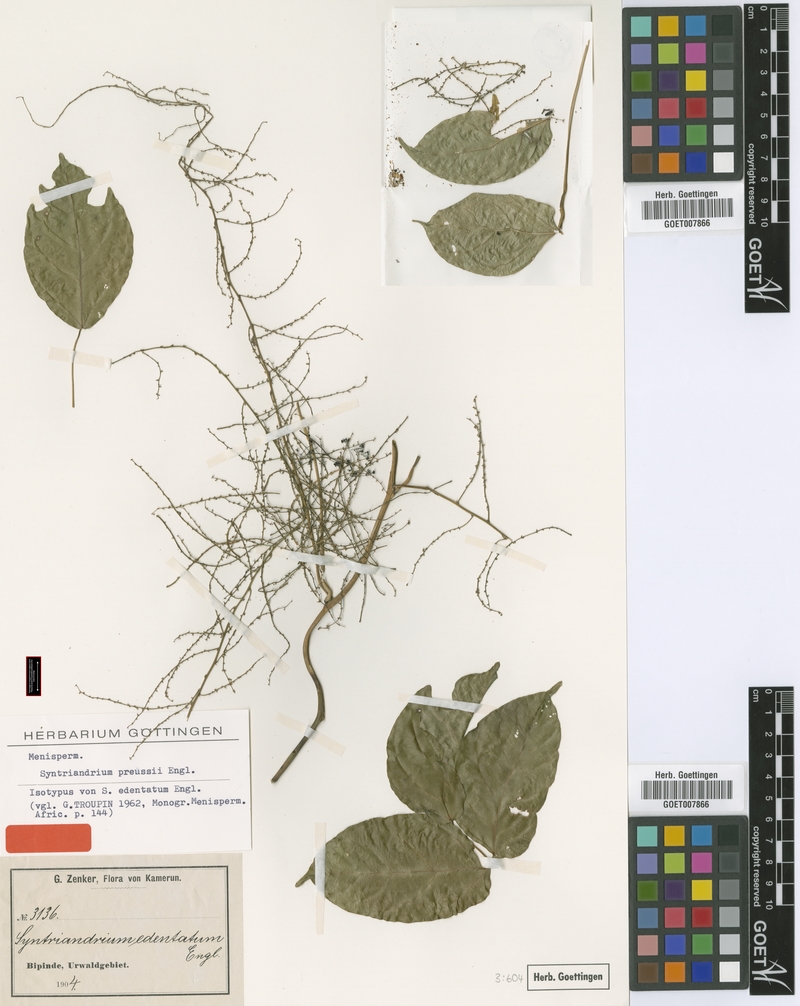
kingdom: Plantae
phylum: Tracheophyta
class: Magnoliopsida
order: Ranunculales
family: Menispermaceae
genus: Syntriandrium
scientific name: Syntriandrium preussii
